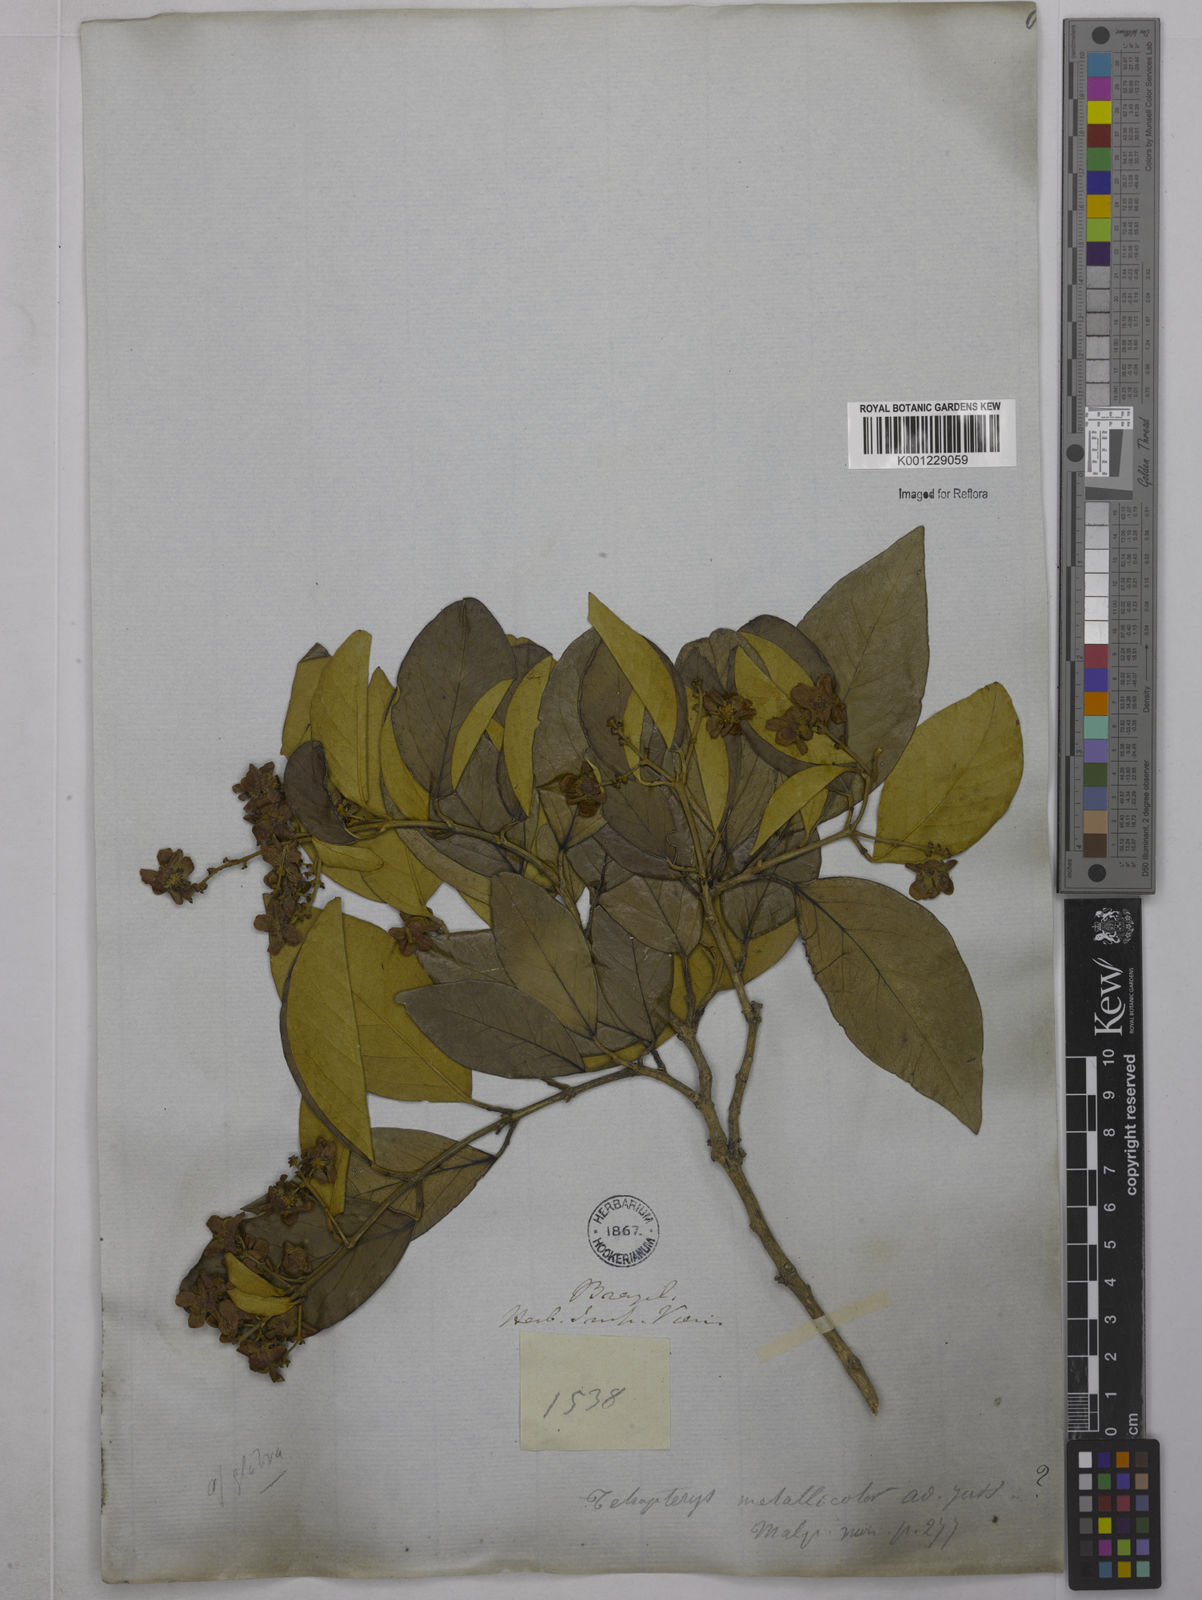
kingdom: Plantae
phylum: Tracheophyta
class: Magnoliopsida
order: Malpighiales
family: Malpighiaceae
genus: Niedenzuella
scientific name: Niedenzuella glabra
